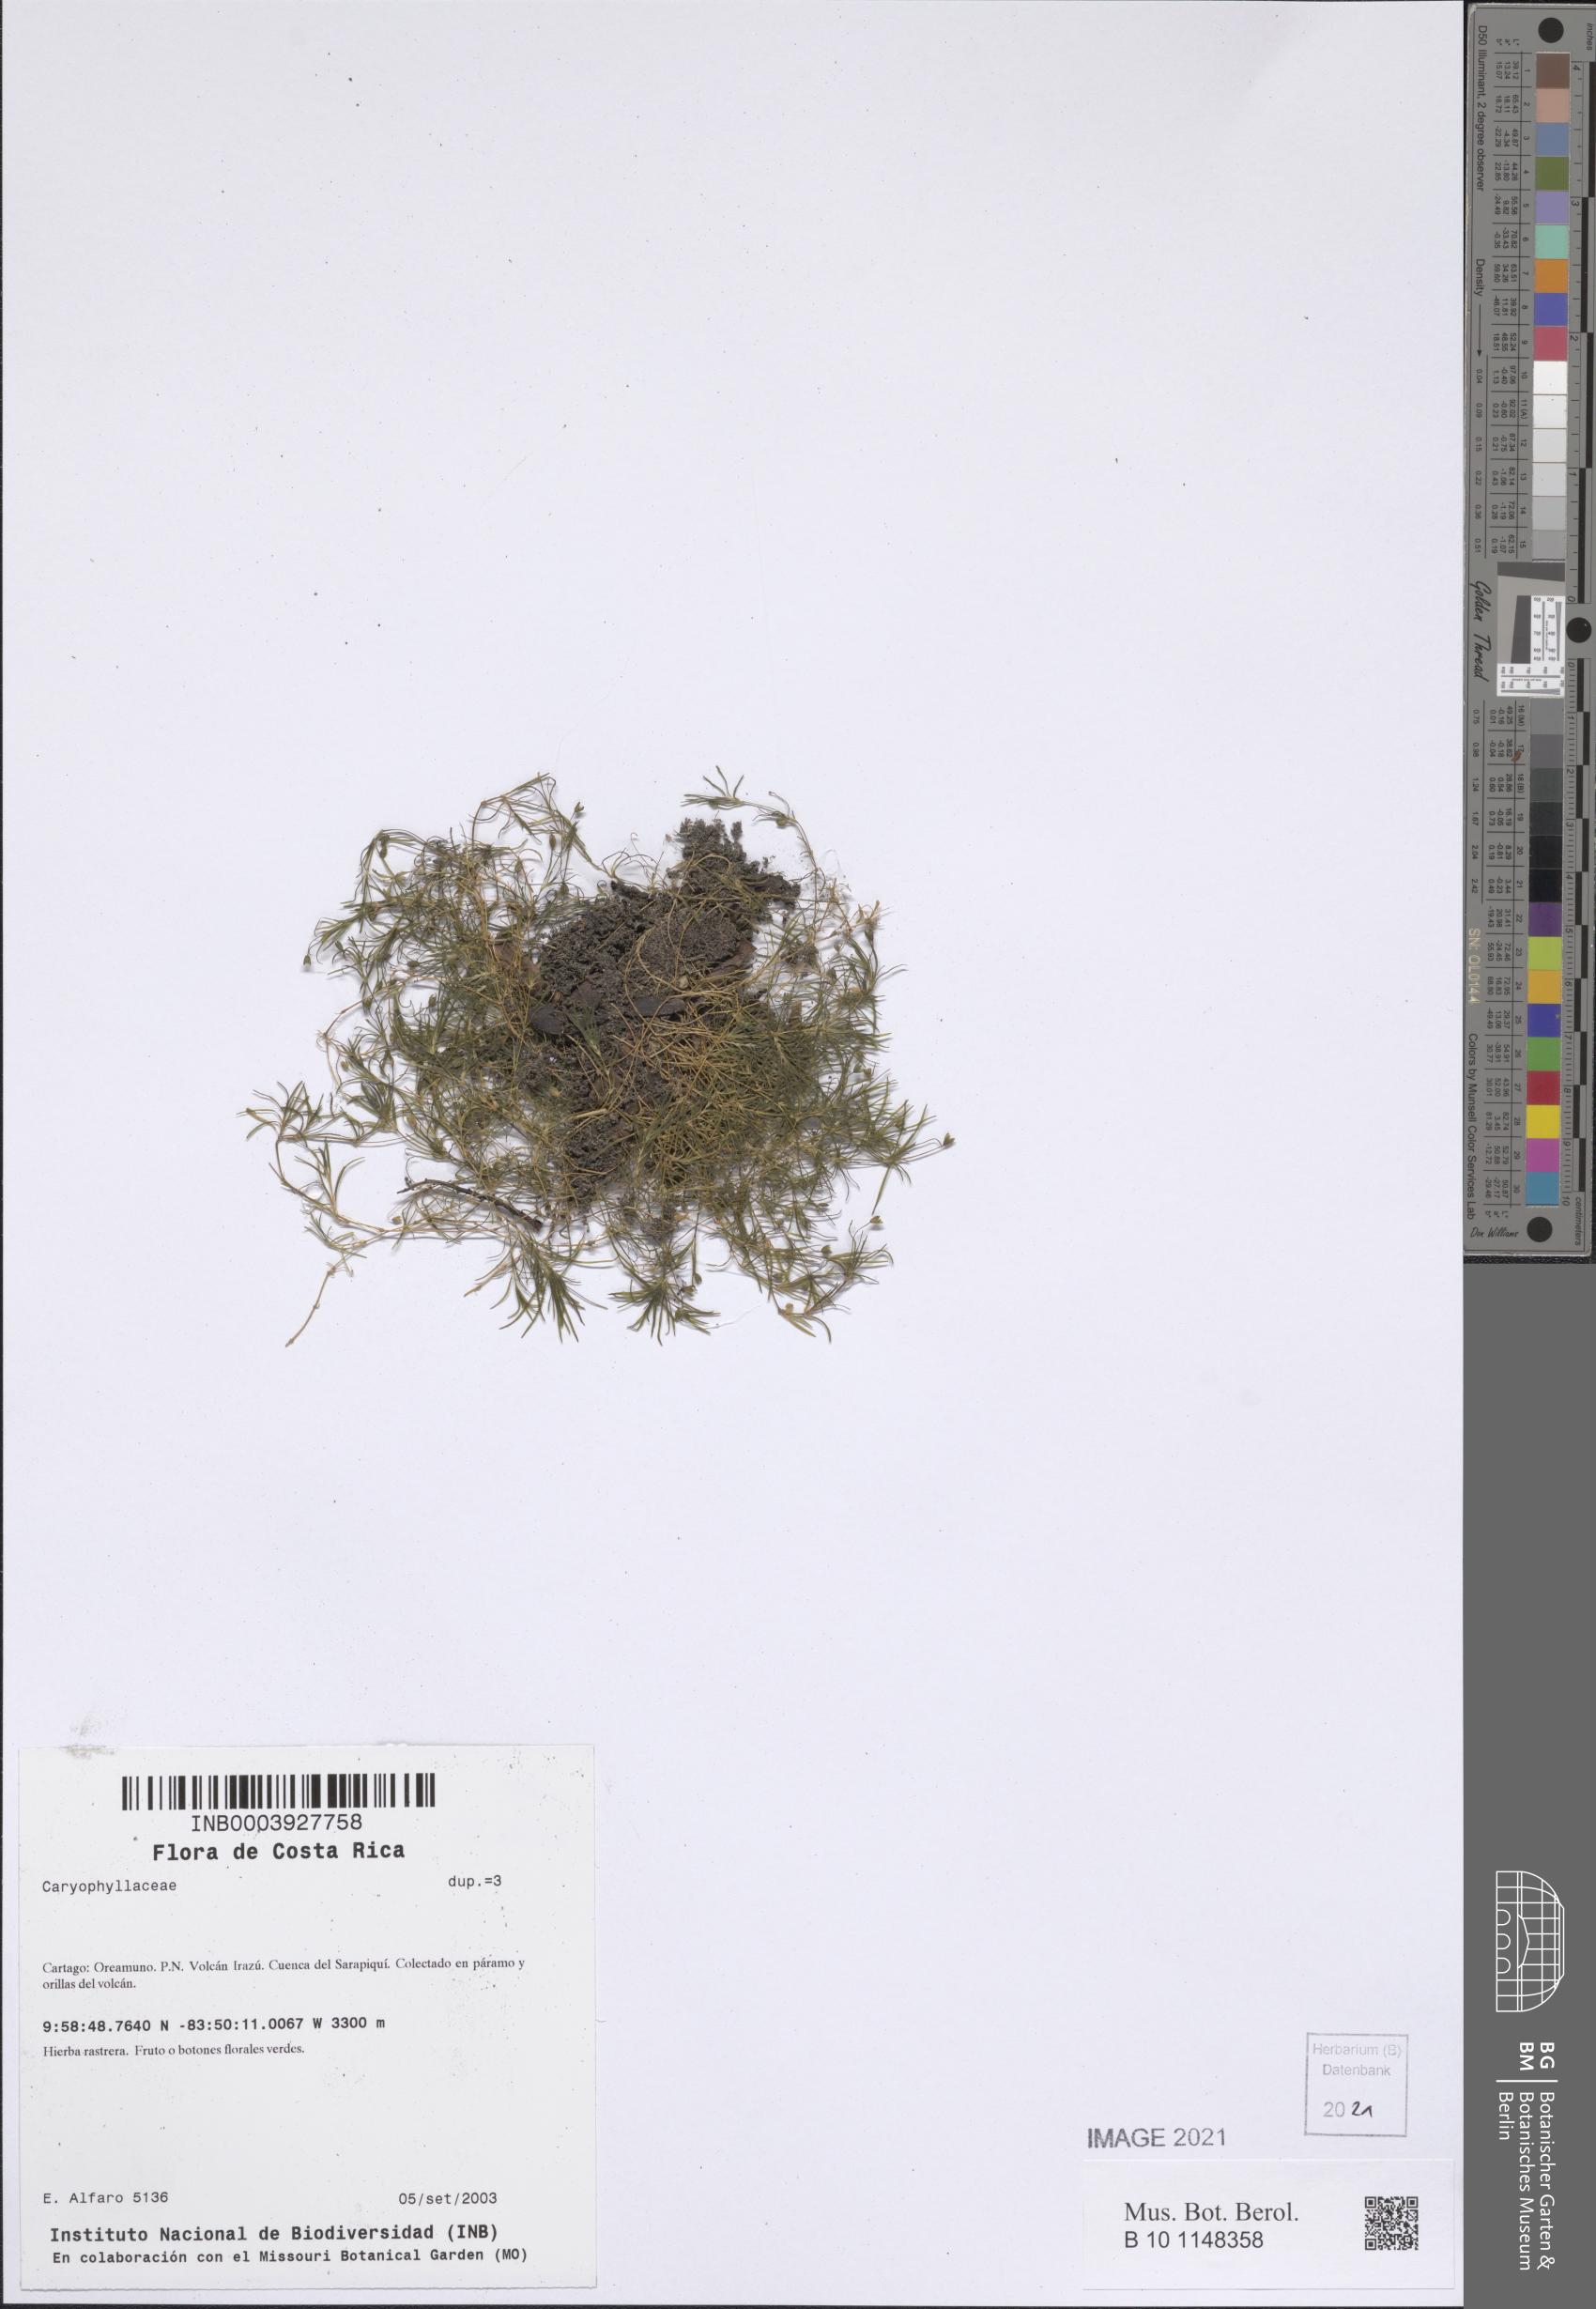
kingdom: Plantae
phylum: Tracheophyta
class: Magnoliopsida
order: Caryophyllales
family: Caryophyllaceae
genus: Sagina
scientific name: Sagina procumbens
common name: Procumbent pearlwort
